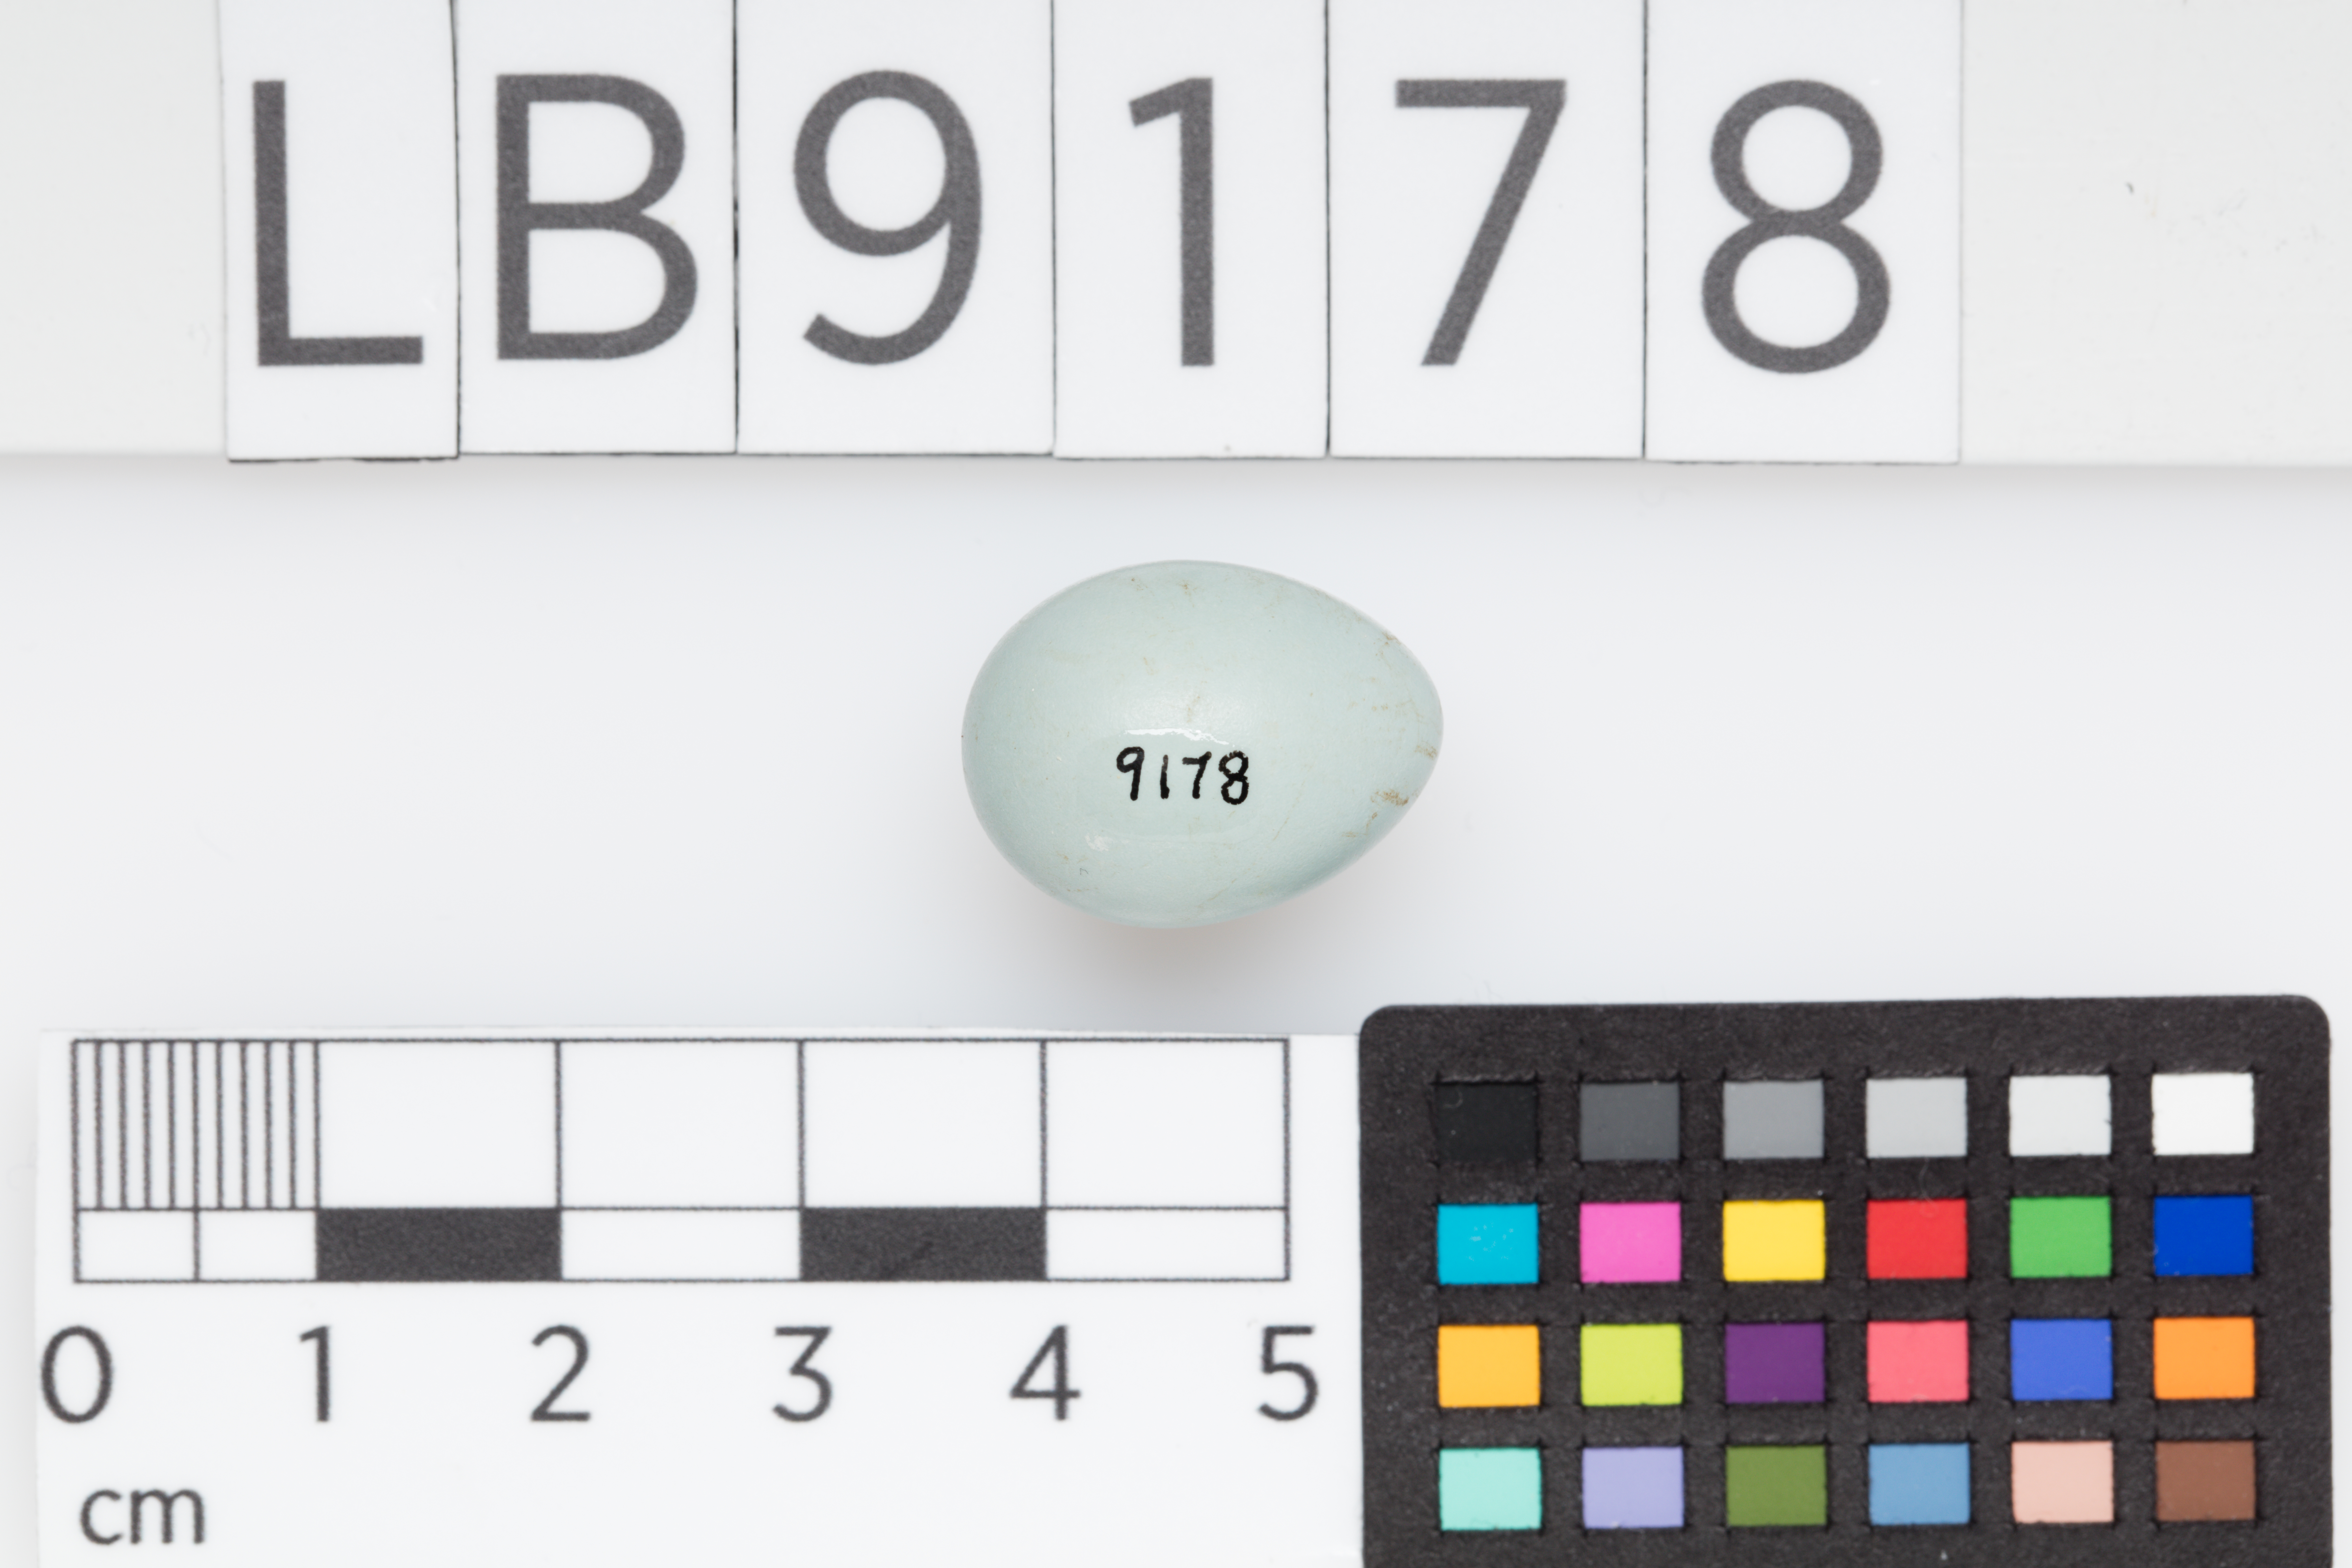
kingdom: Animalia
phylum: Chordata
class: Aves
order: Passeriformes
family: Zosteropidae
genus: Zosterops
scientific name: Zosterops lateralis
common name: Silvereye
